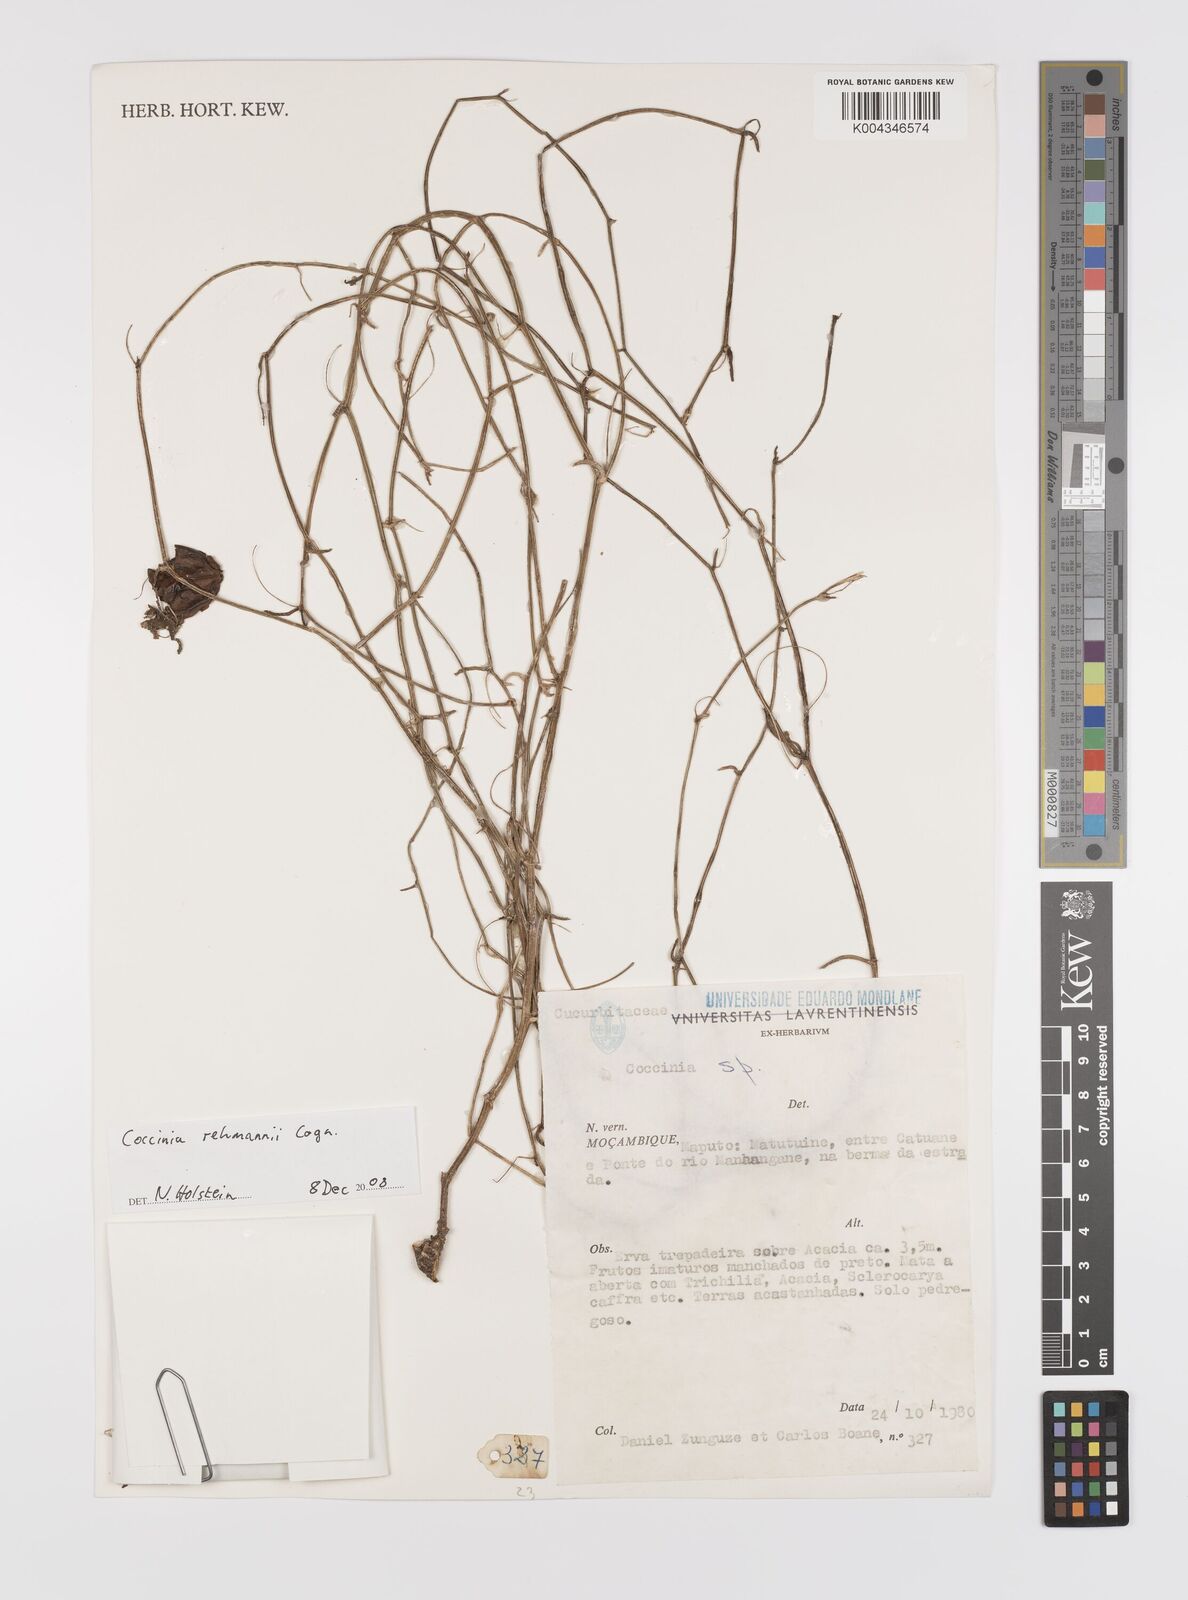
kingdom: Plantae
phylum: Tracheophyta
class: Magnoliopsida
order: Cucurbitales
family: Cucurbitaceae
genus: Coccinia
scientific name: Coccinia rehmannii
